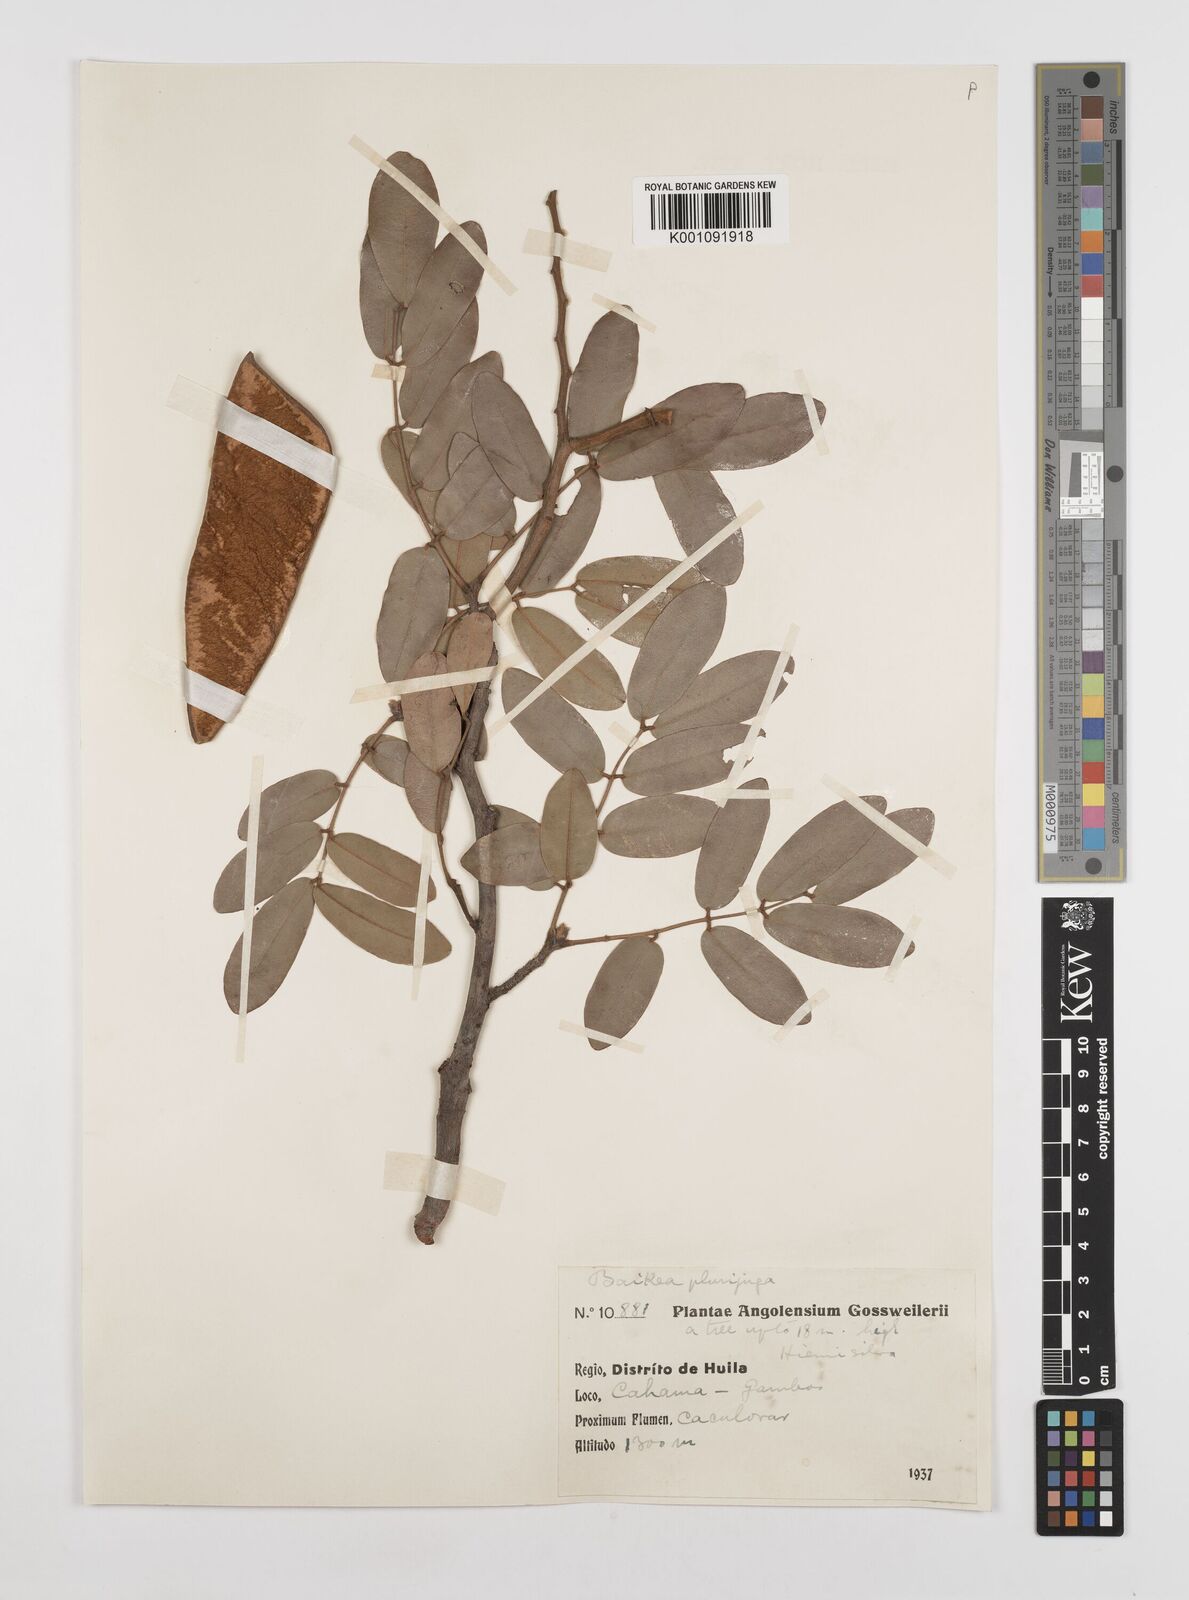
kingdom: Plantae
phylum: Tracheophyta
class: Magnoliopsida
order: Fabales
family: Fabaceae
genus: Baikiaea
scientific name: Baikiaea plurijuga
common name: Rhodesian-teak
